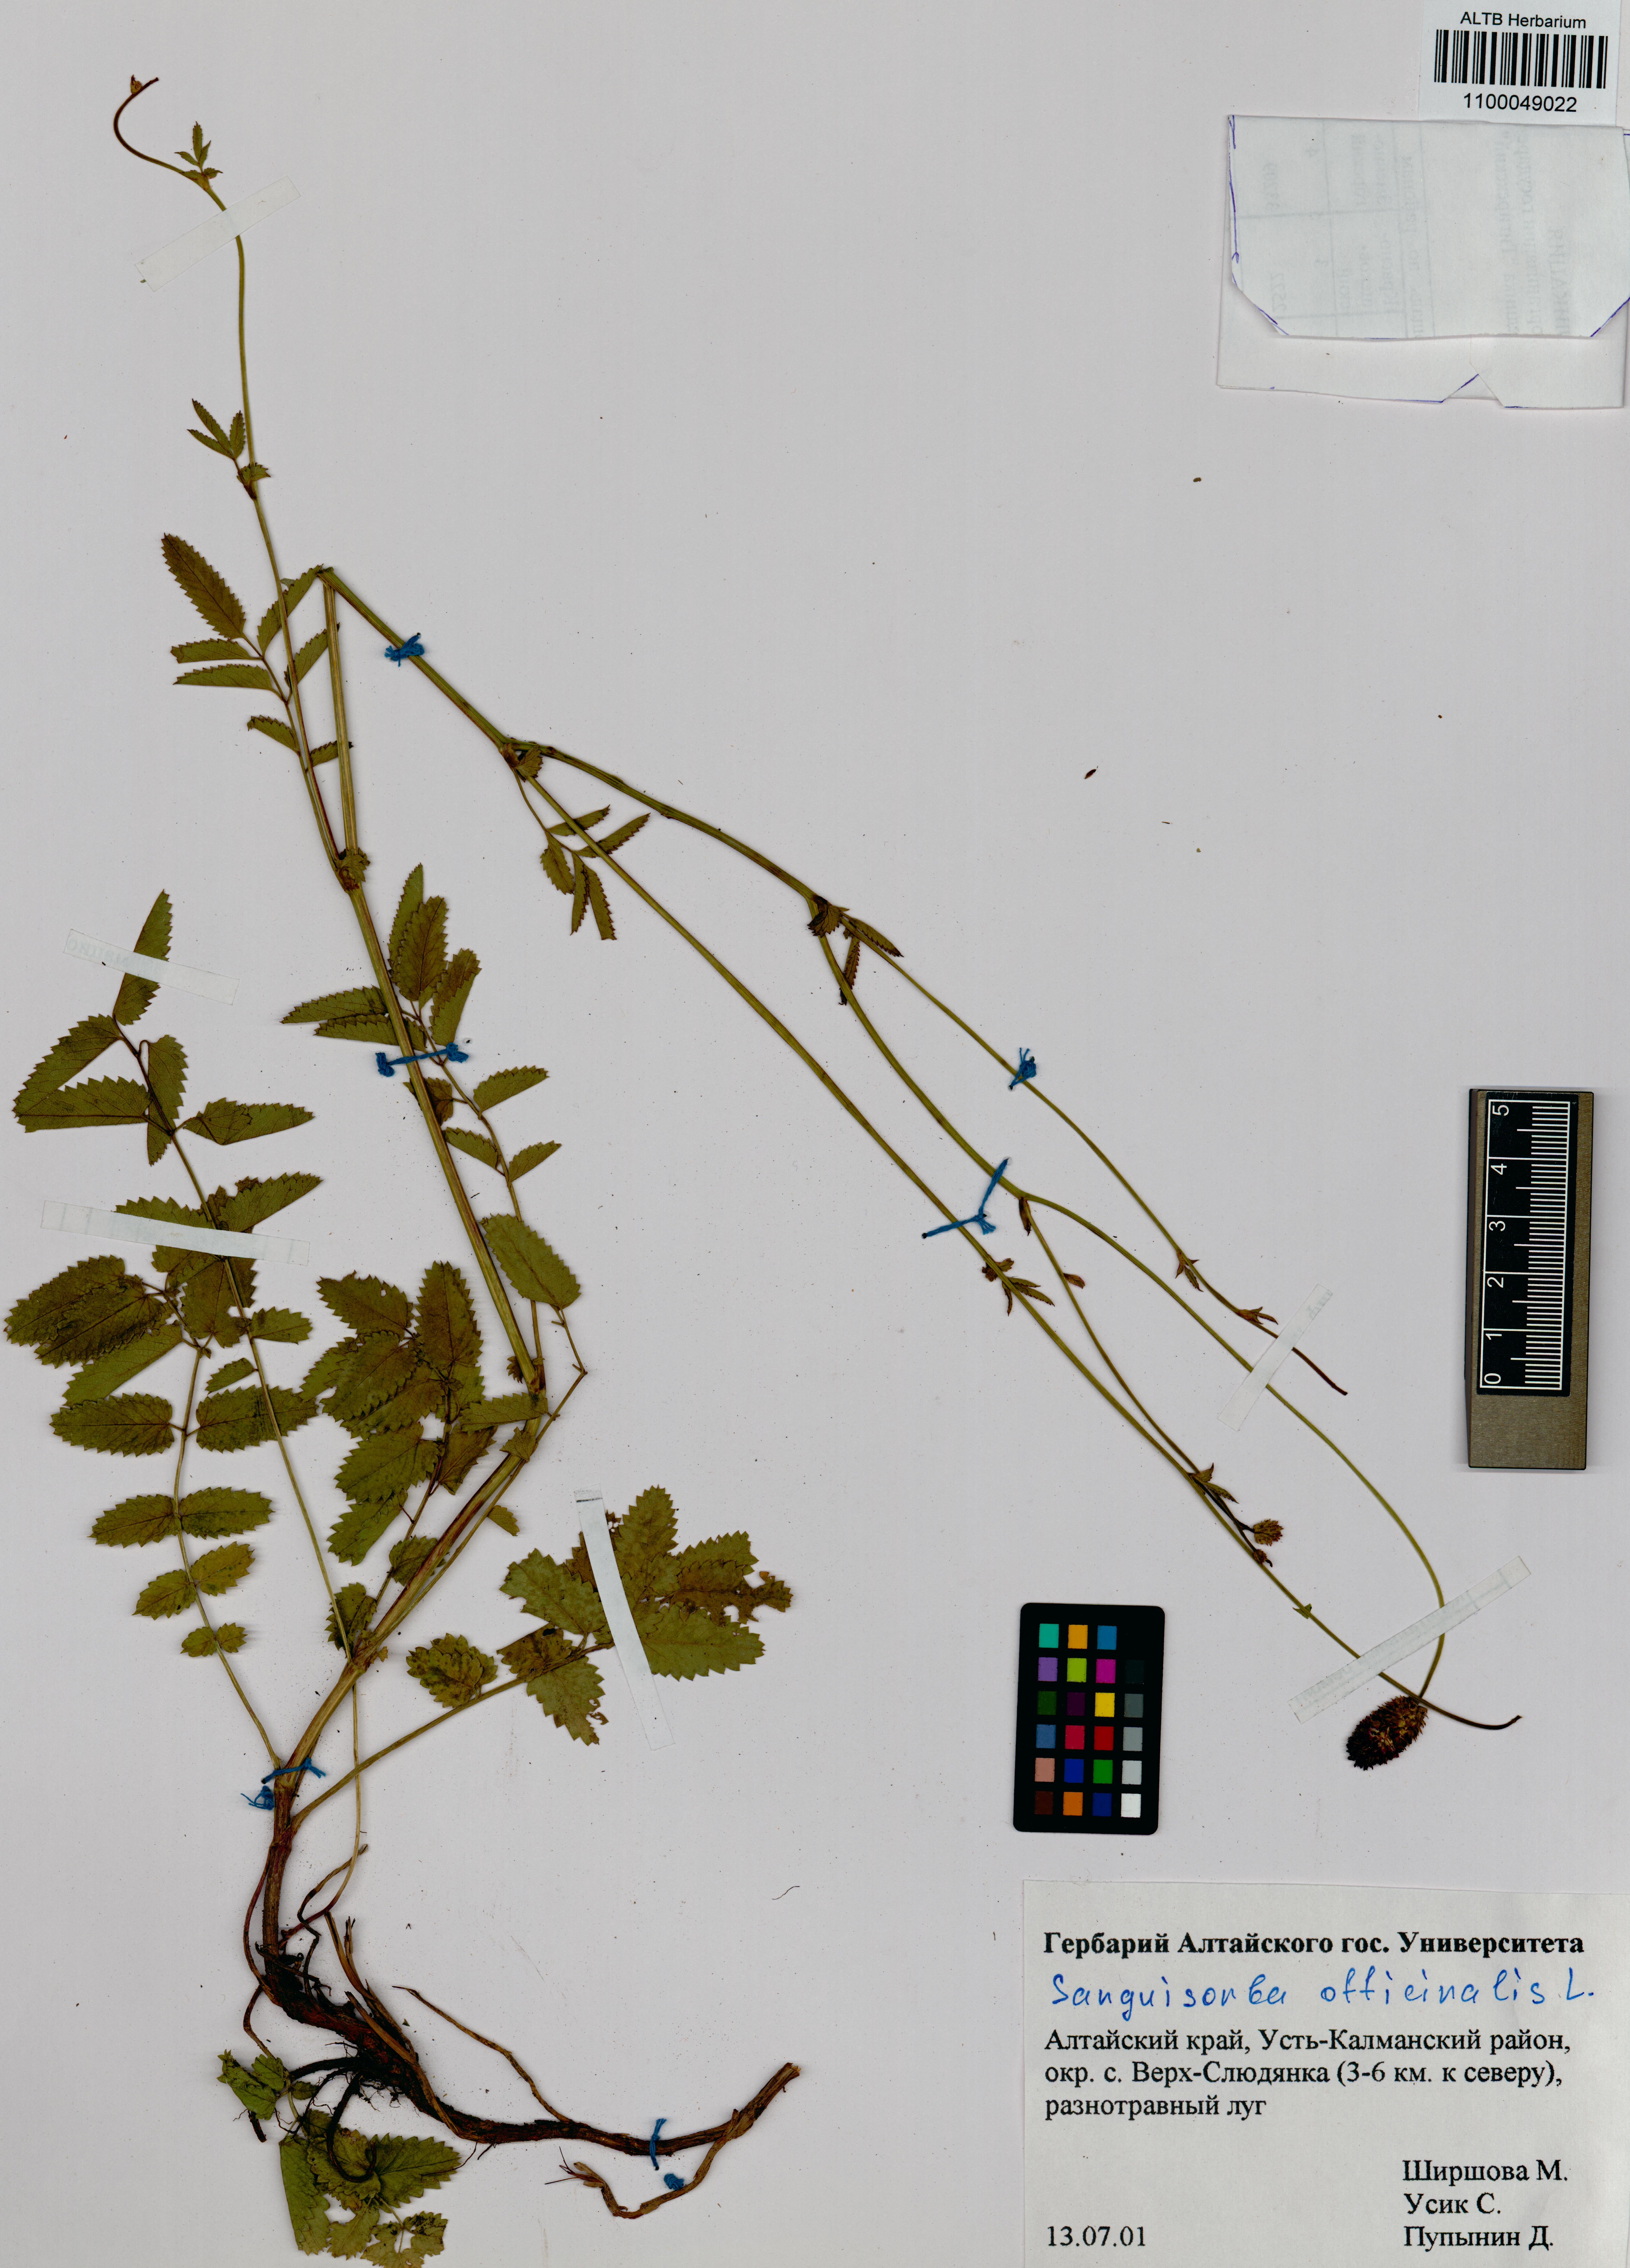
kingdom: Plantae
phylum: Tracheophyta
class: Magnoliopsida
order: Rosales
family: Rosaceae
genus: Sanguisorba
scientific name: Sanguisorba officinalis
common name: Great burnet
